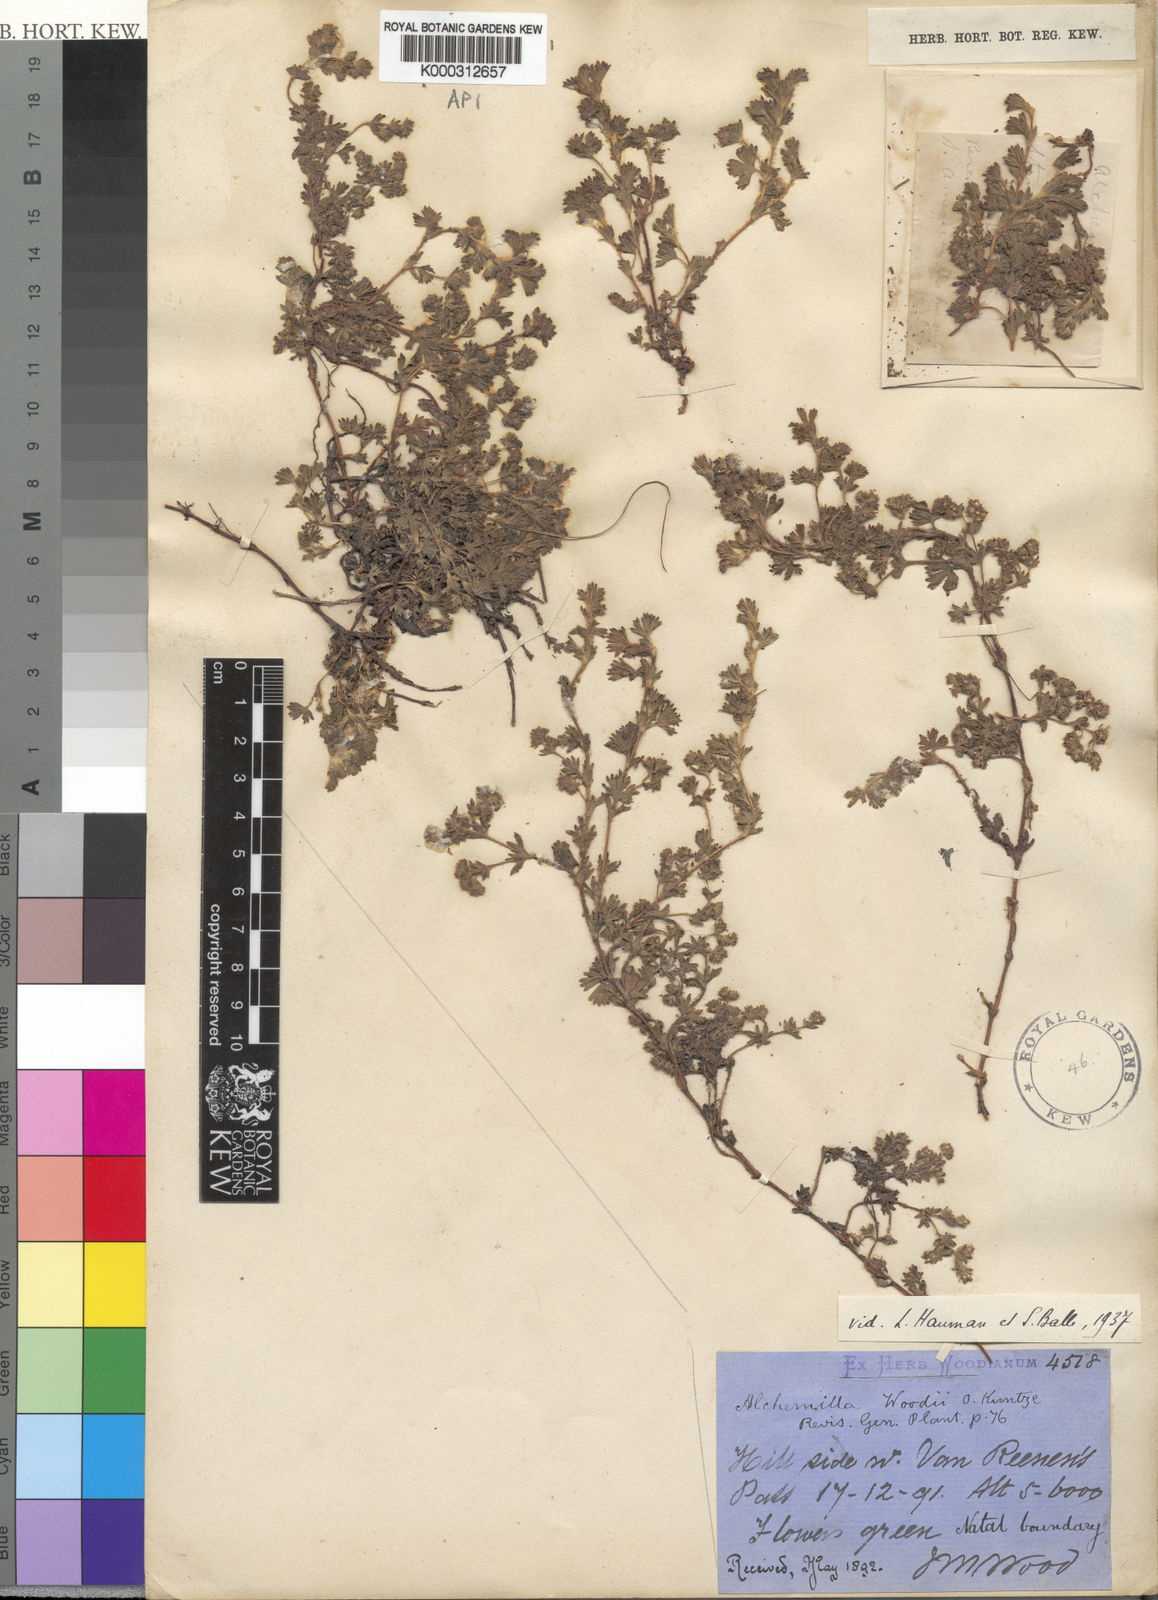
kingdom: Plantae
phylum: Tracheophyta
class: Magnoliopsida
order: Rosales
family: Rosaceae
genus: Alchemilla
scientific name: Alchemilla woodii
